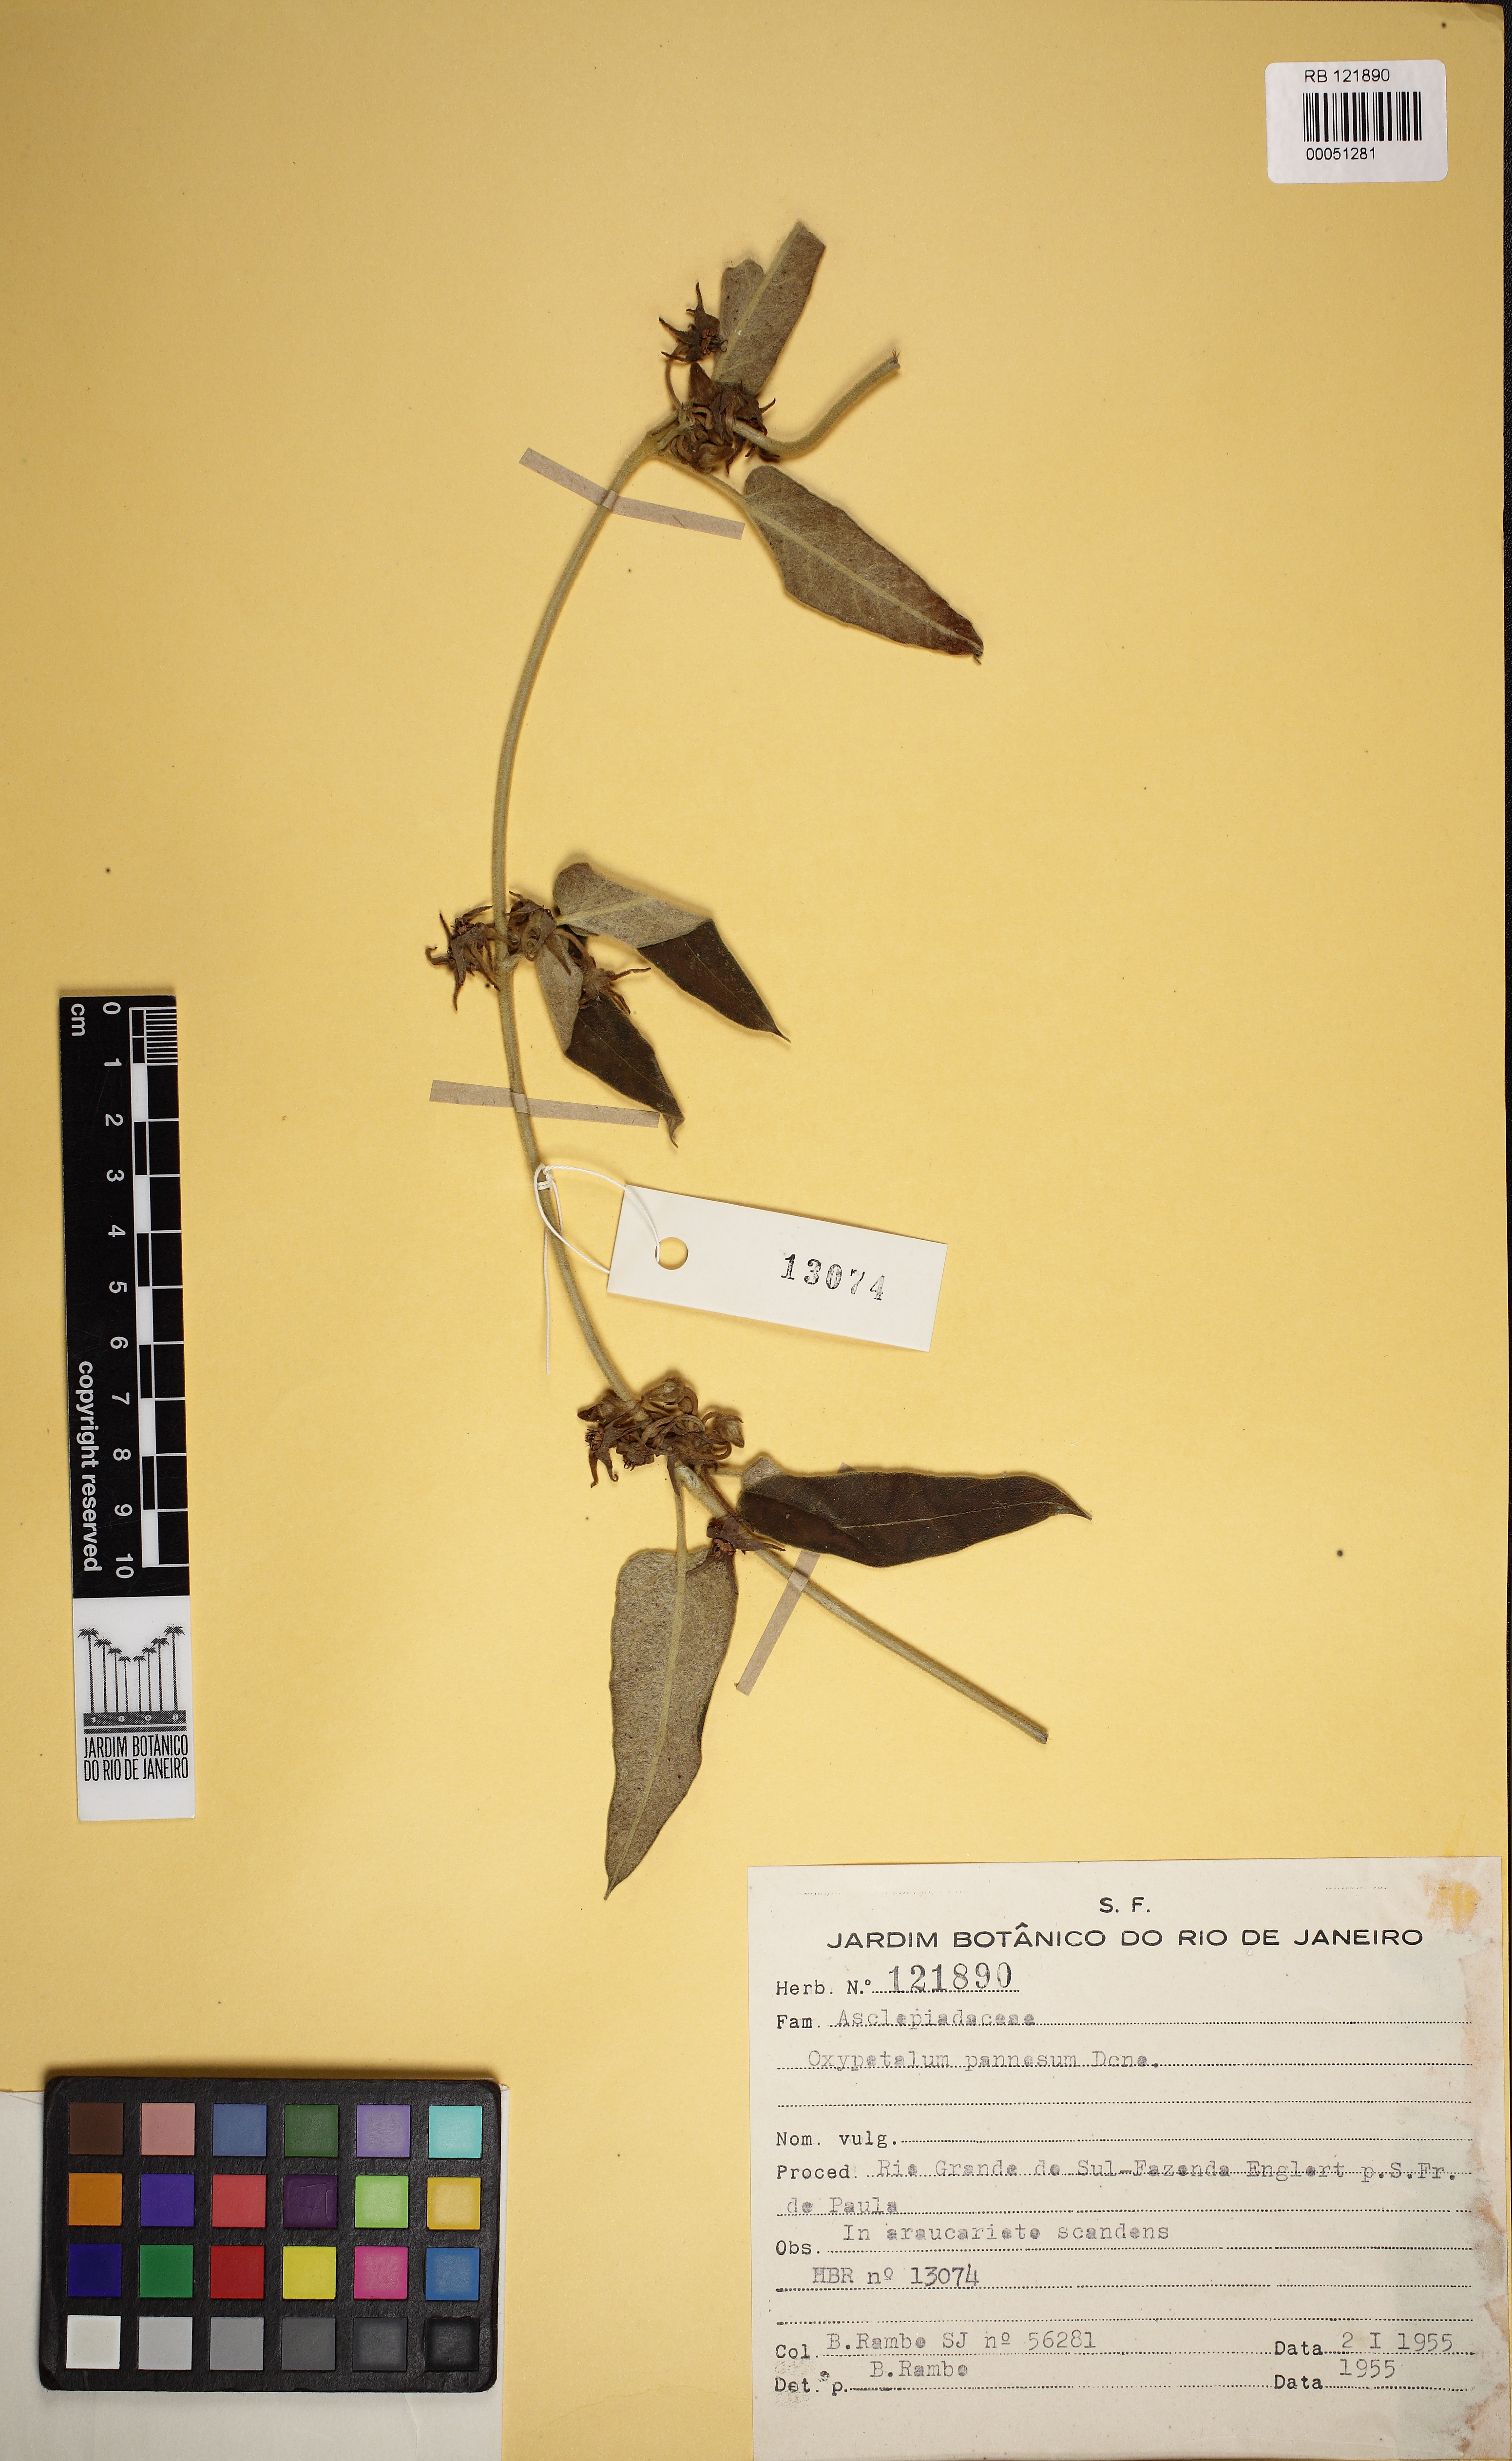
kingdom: Plantae
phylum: Tracheophyta
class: Magnoliopsida
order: Gentianales
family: Apocynaceae
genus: Oxypetalum
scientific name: Oxypetalum pannosum
